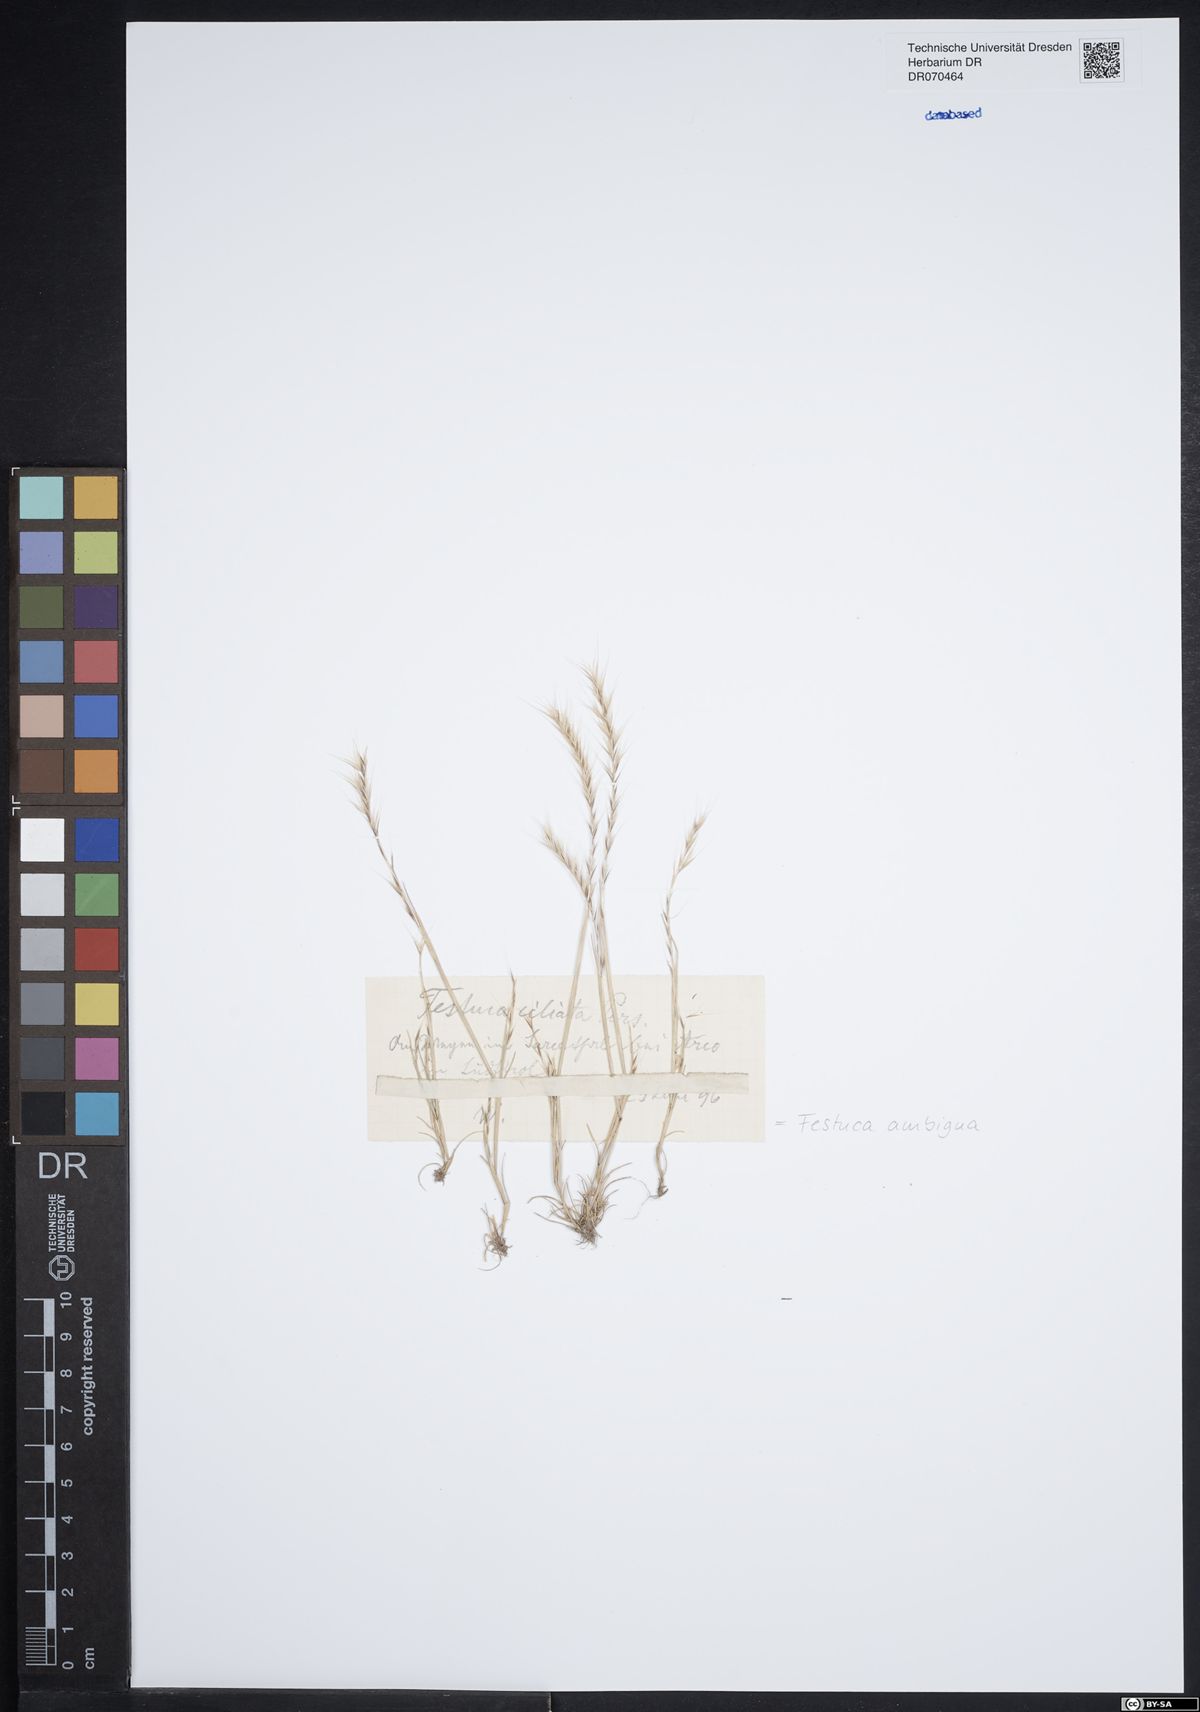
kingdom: Plantae
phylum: Tracheophyta
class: Liliopsida
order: Poales
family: Poaceae
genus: Festuca
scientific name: Festuca ambigua
